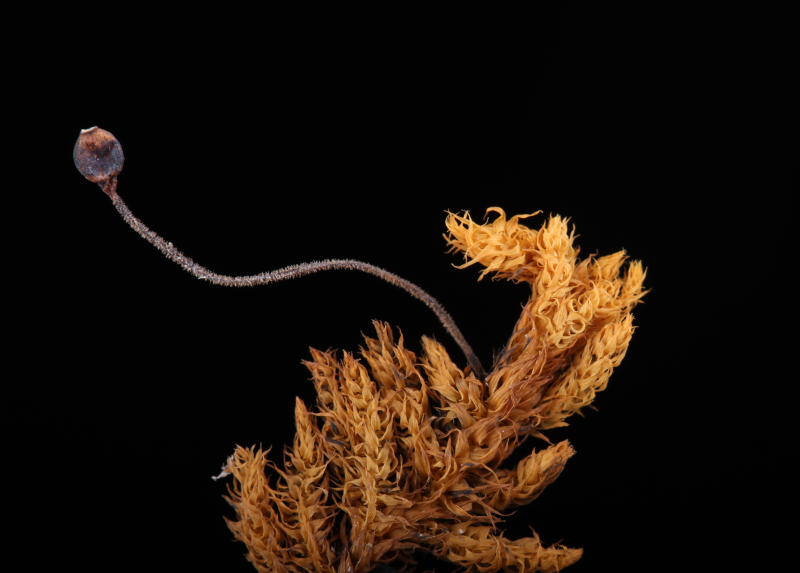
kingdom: Plantae
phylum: Bryophyta
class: Bryopsida
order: Hypnales
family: Meteoriaceae
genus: Trachypus
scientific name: Trachypus bicolor
